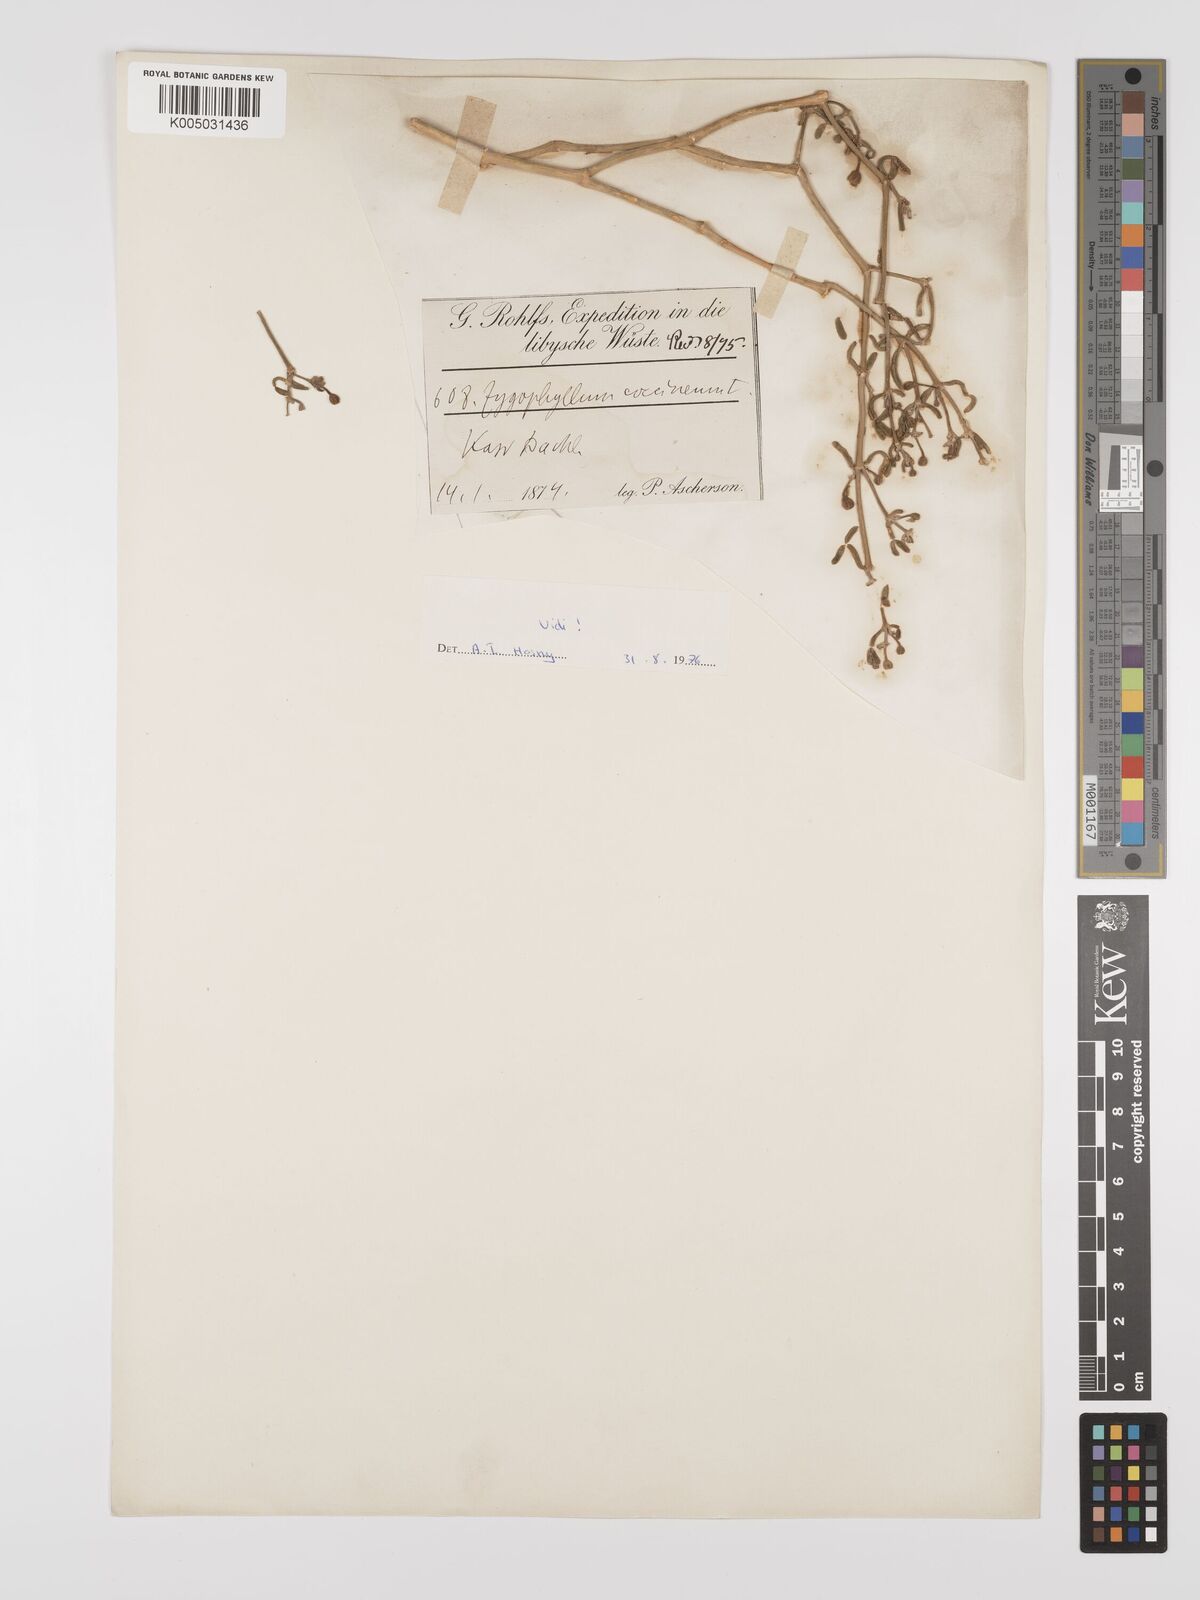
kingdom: Plantae
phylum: Tracheophyta
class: Magnoliopsida
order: Zygophyllales
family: Zygophyllaceae
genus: Zygophyllum
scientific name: Zygophyllum
